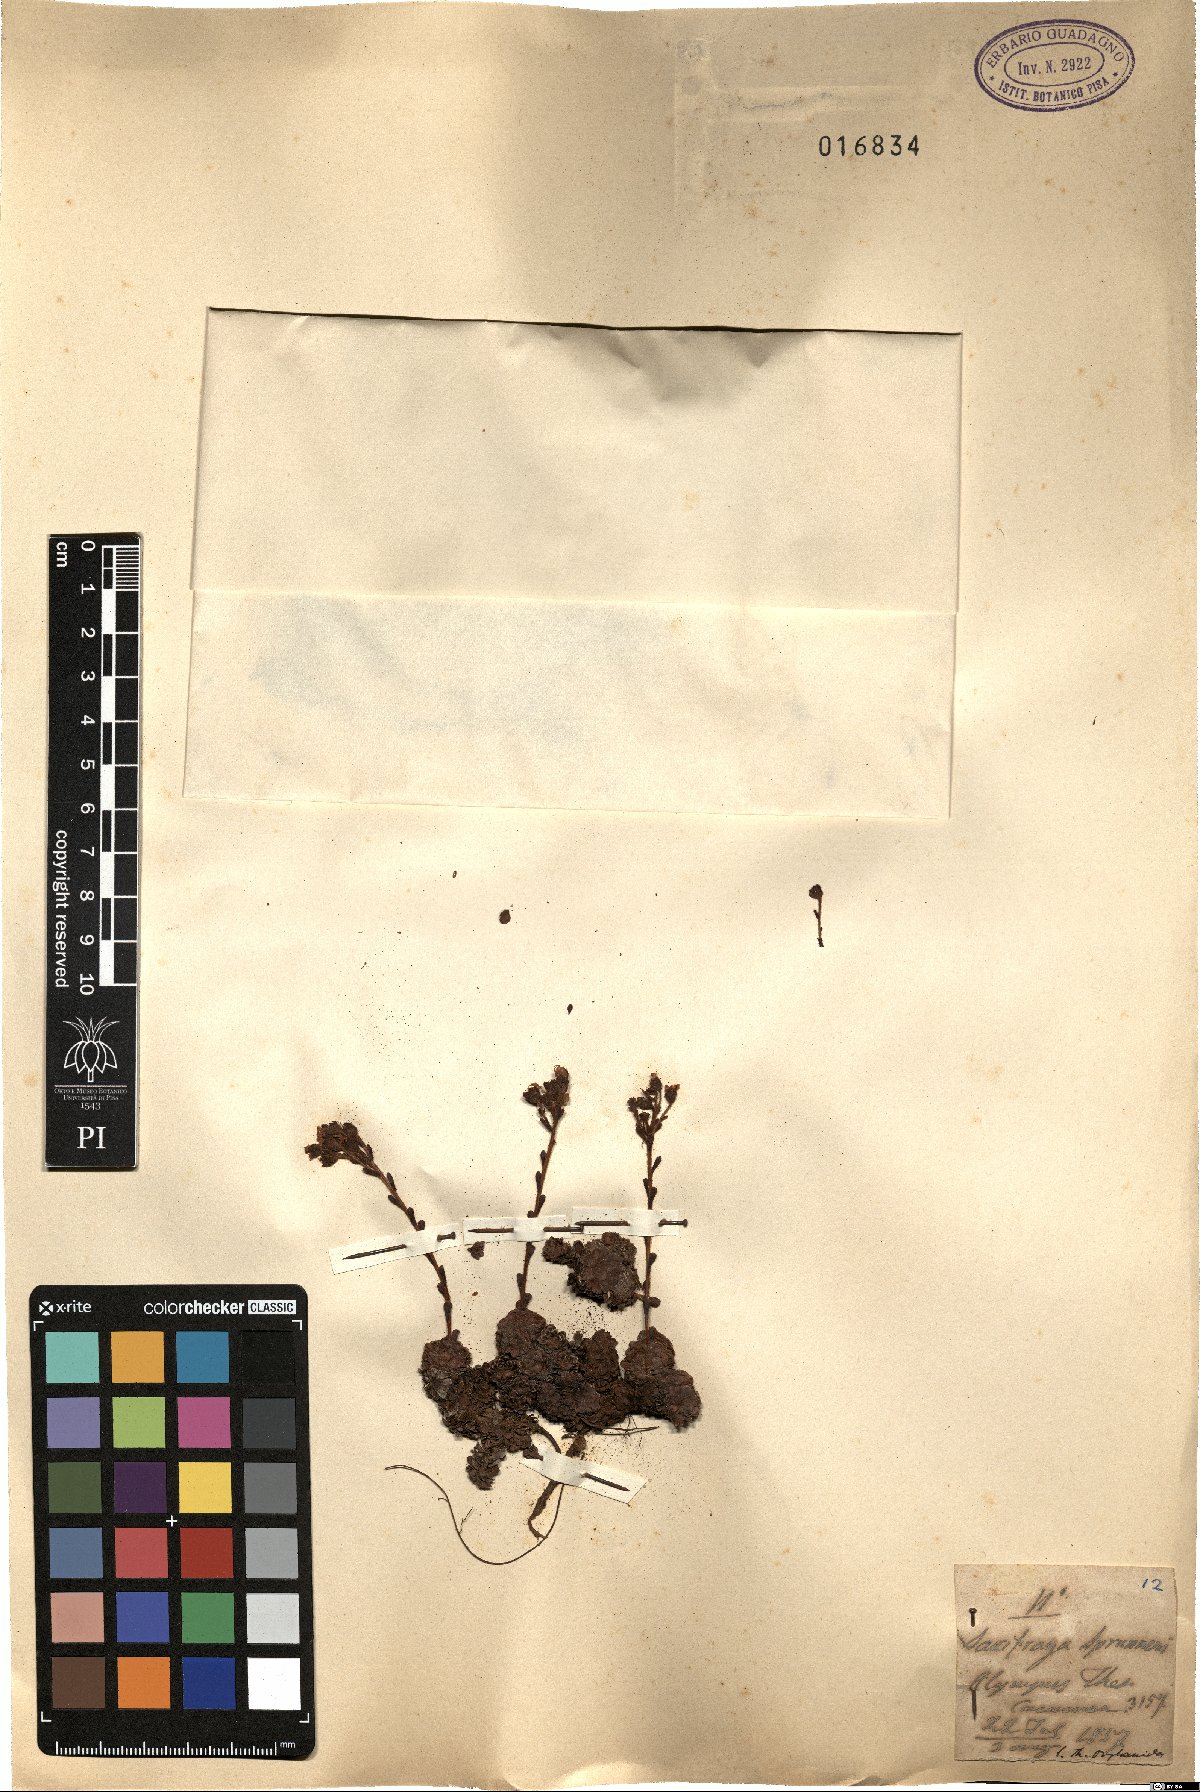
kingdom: Plantae
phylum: Tracheophyta
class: Magnoliopsida
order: Saxifragales
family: Saxifragaceae
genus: Saxifraga
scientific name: Saxifraga spruneri
